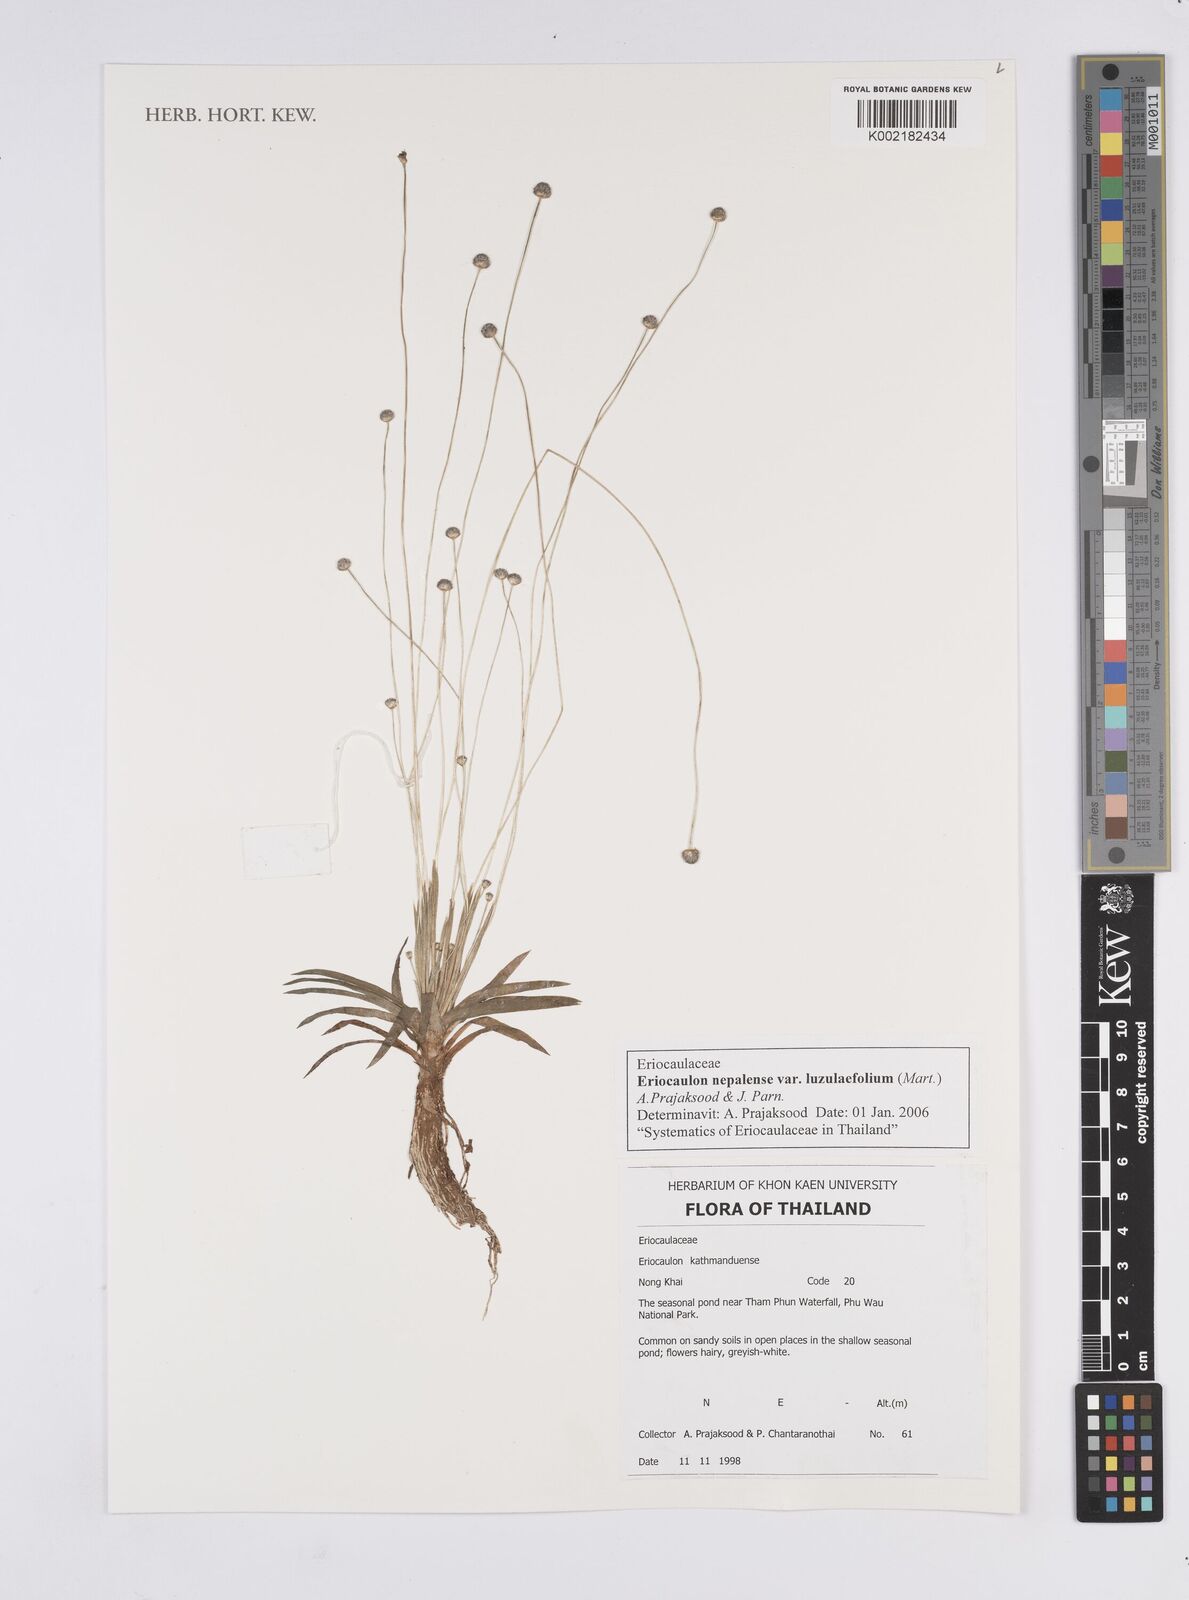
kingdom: Plantae
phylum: Tracheophyta
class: Liliopsida
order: Poales
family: Eriocaulaceae
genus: Eriocaulon
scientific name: Eriocaulon nepalense
